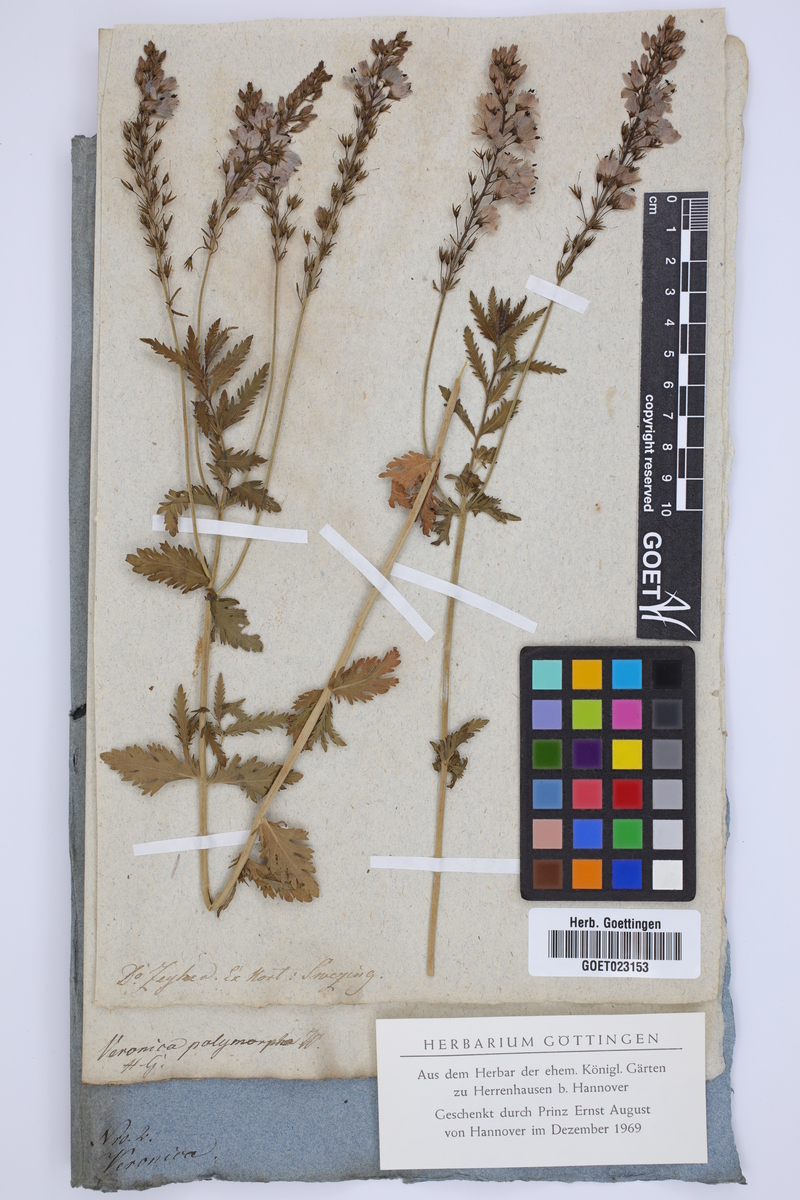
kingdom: Plantae
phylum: Tracheophyta
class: Magnoliopsida
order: Lamiales
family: Plantaginaceae
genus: Veronica
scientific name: Veronica austriaca
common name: Large speedwell
